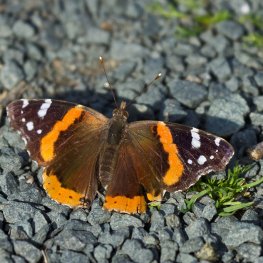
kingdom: Animalia
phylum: Arthropoda
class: Insecta
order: Lepidoptera
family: Nymphalidae
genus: Vanessa
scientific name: Vanessa atalanta
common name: Red Admiral
